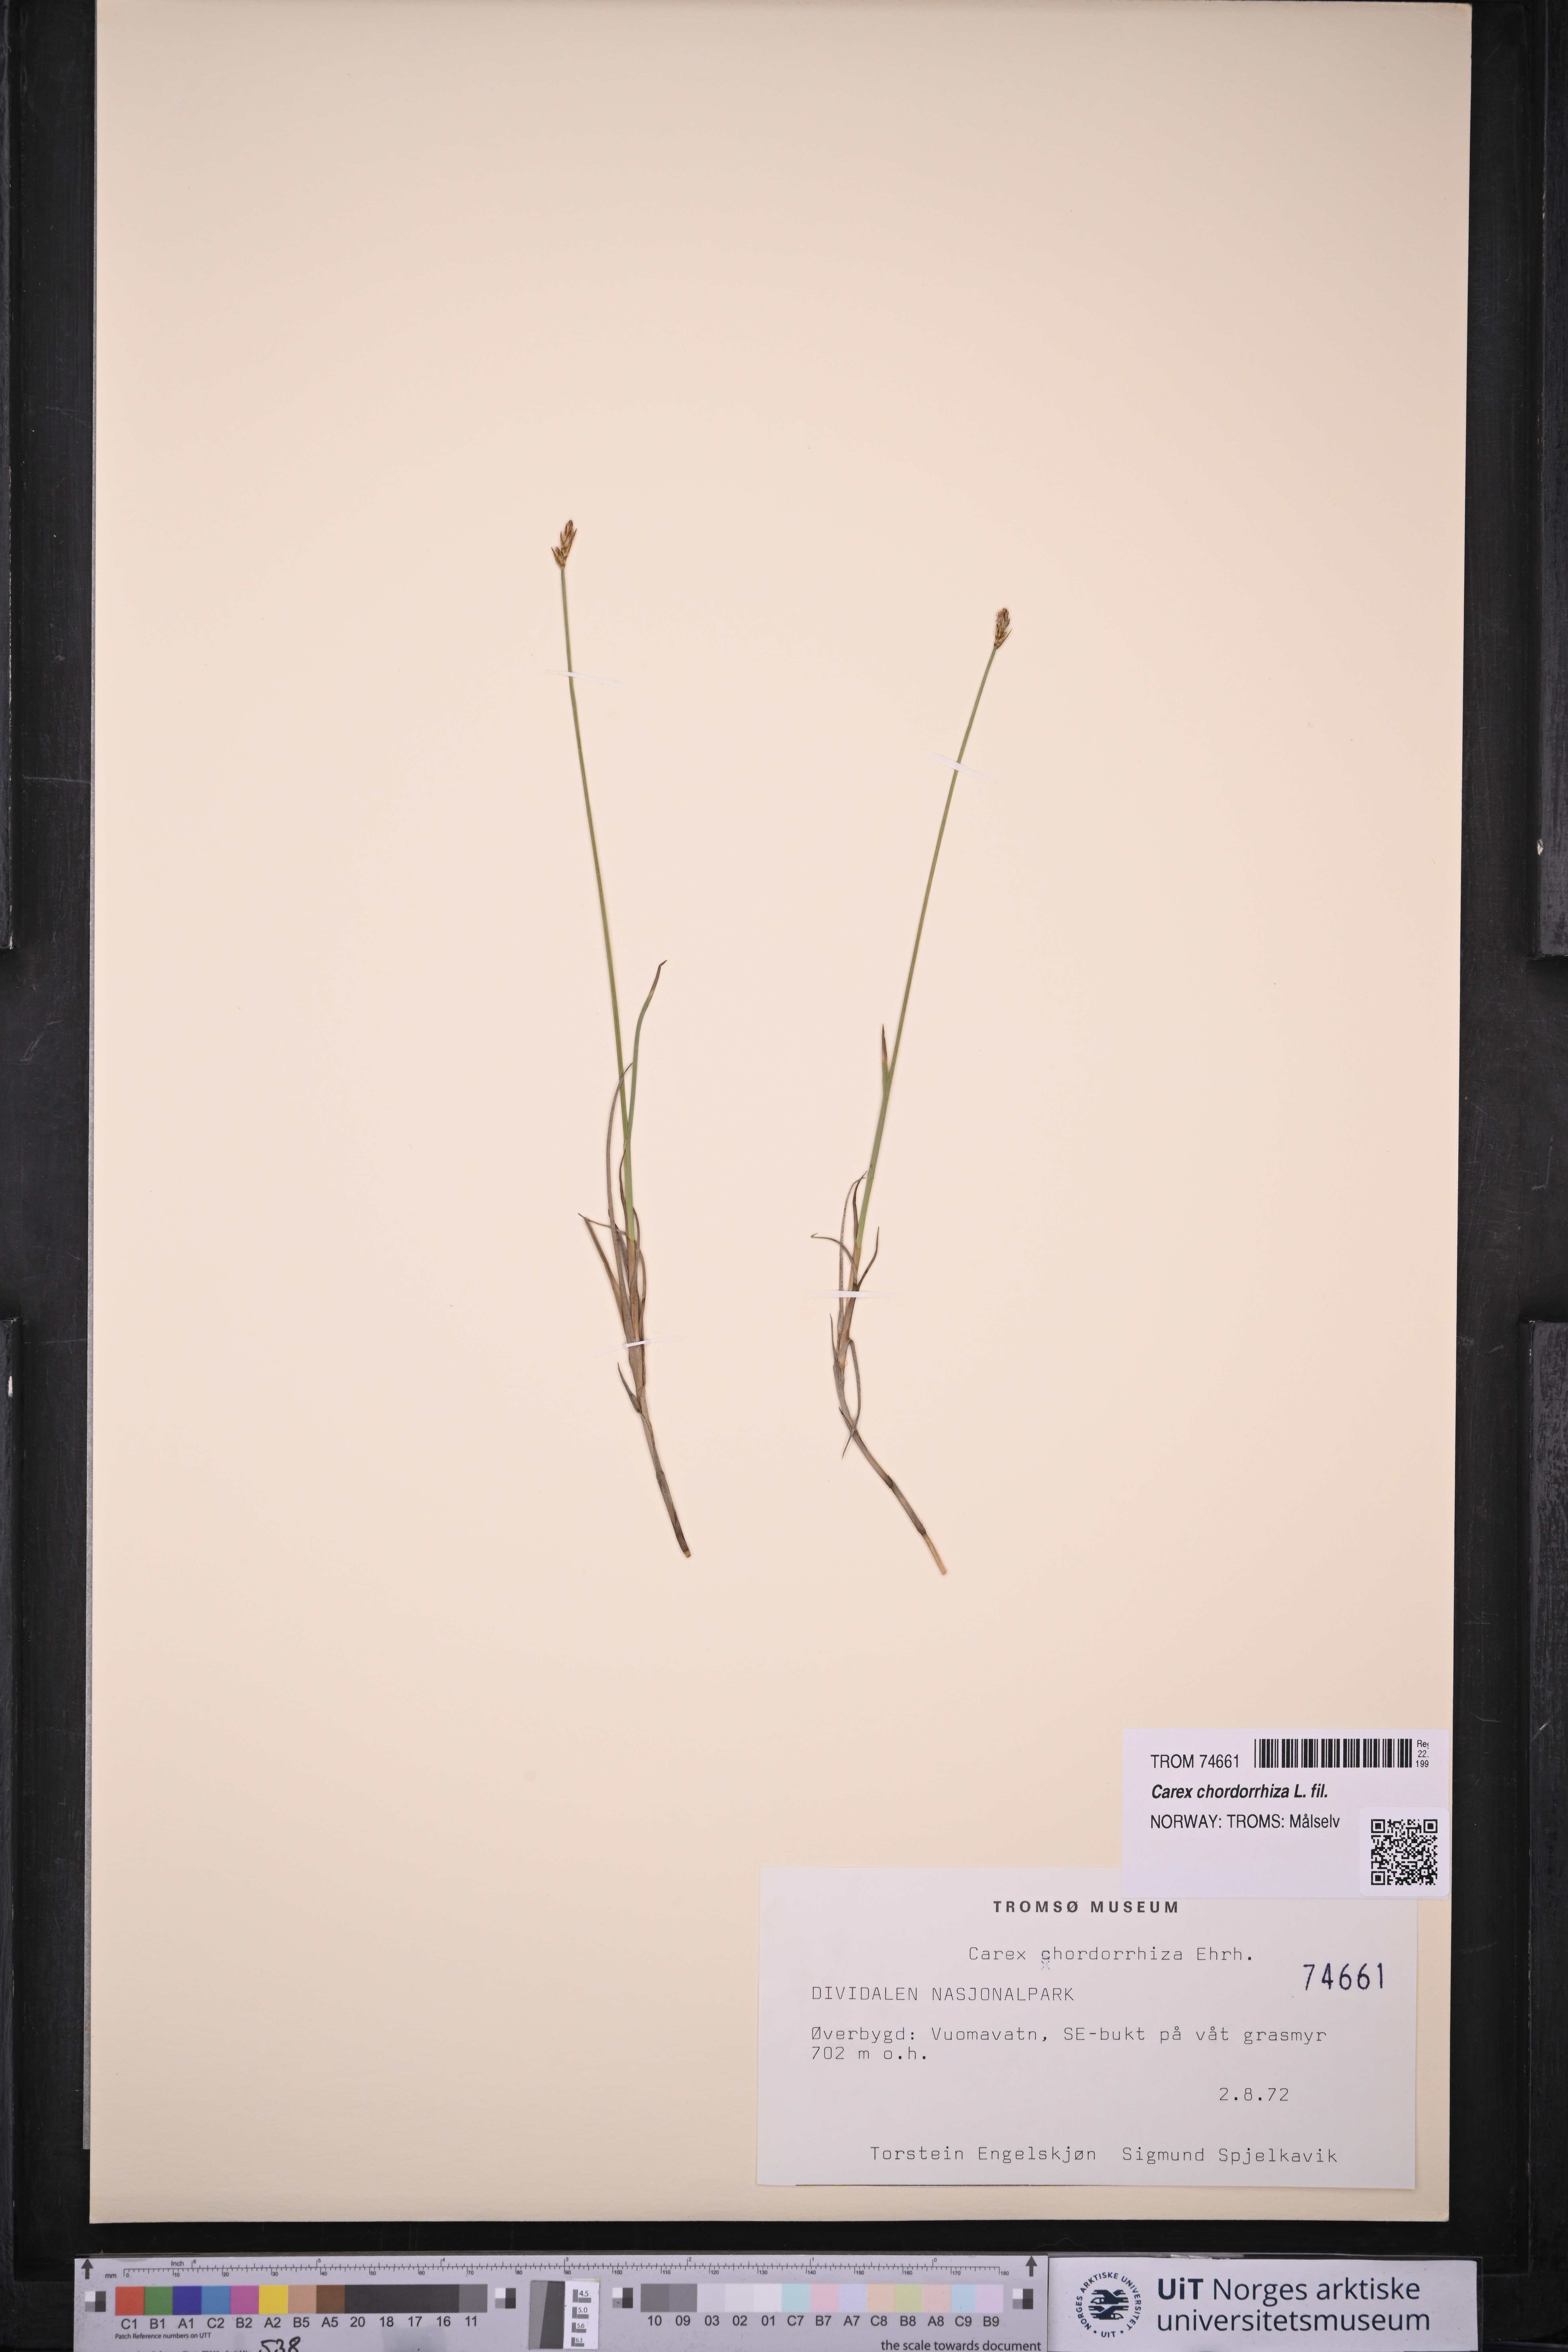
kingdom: Plantae
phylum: Tracheophyta
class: Liliopsida
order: Poales
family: Cyperaceae
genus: Carex
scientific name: Carex chordorrhiza
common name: String sedge
